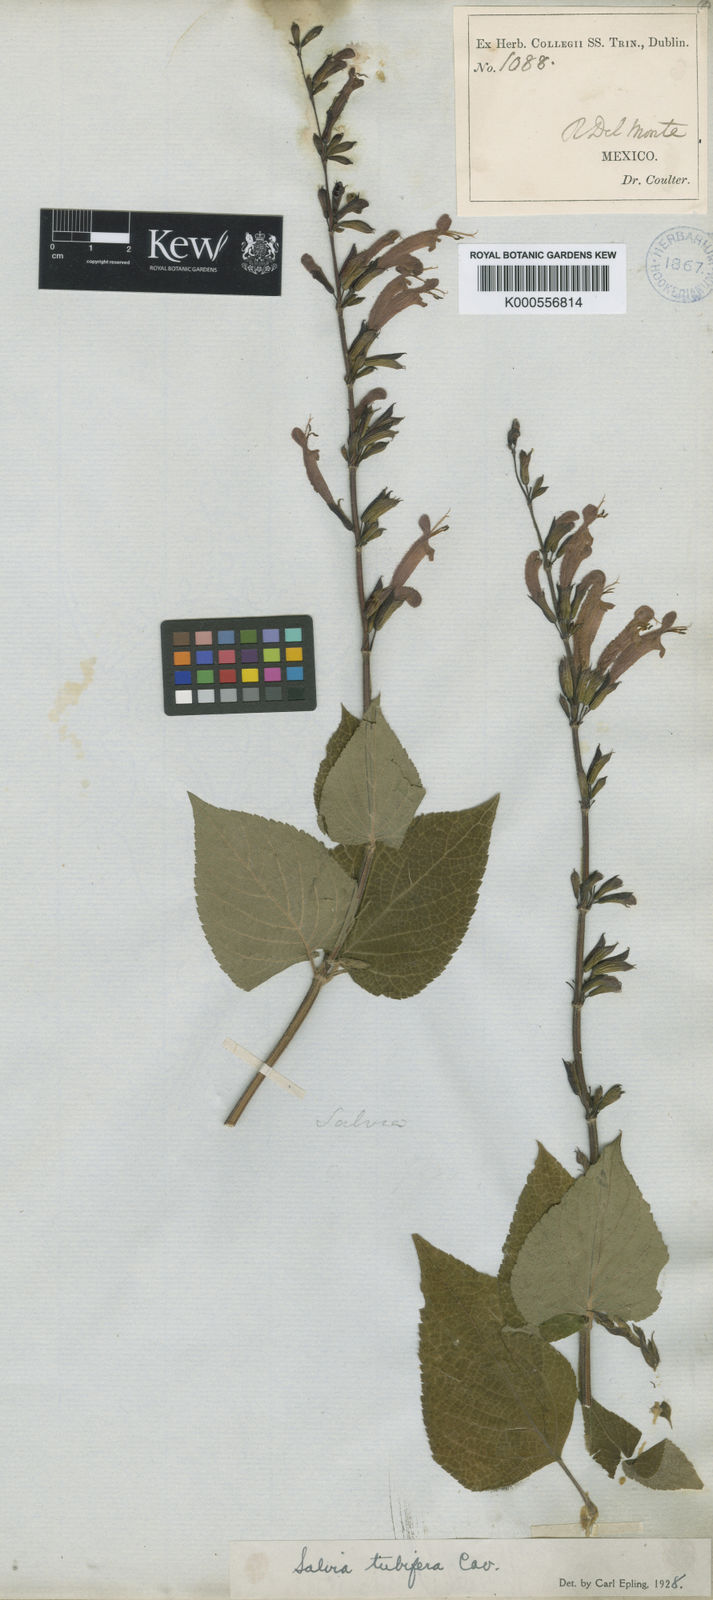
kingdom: Plantae
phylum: Tracheophyta
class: Magnoliopsida
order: Lamiales
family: Lamiaceae
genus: Salvia
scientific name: Salvia tubifera
